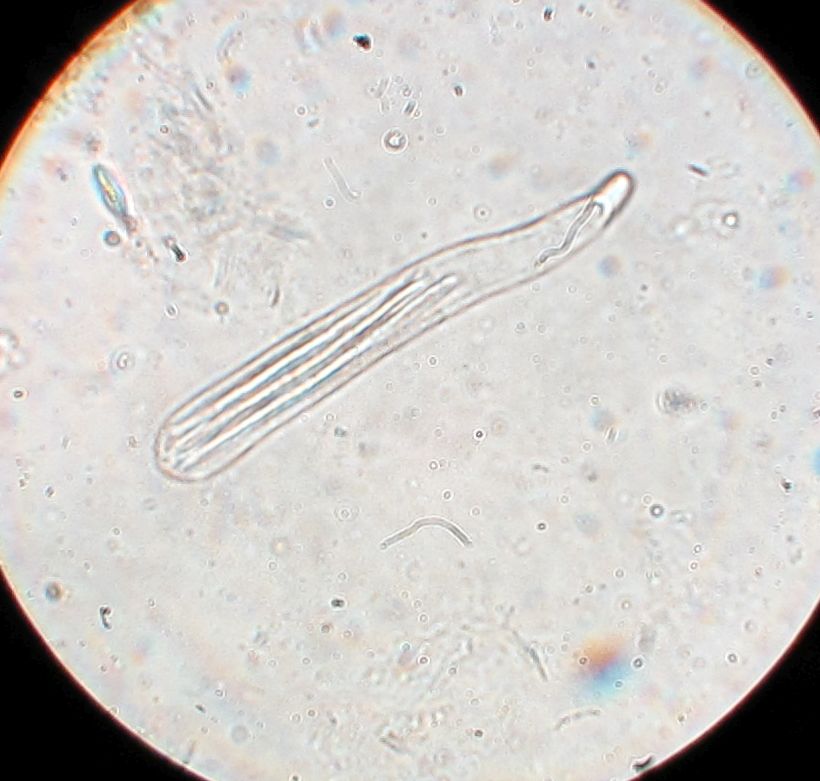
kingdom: Fungi
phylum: Ascomycota
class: Leotiomycetes
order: Helotiales
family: Lachnaceae
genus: Lachnum
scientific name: Lachnum apalum
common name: siv-frynseskive
